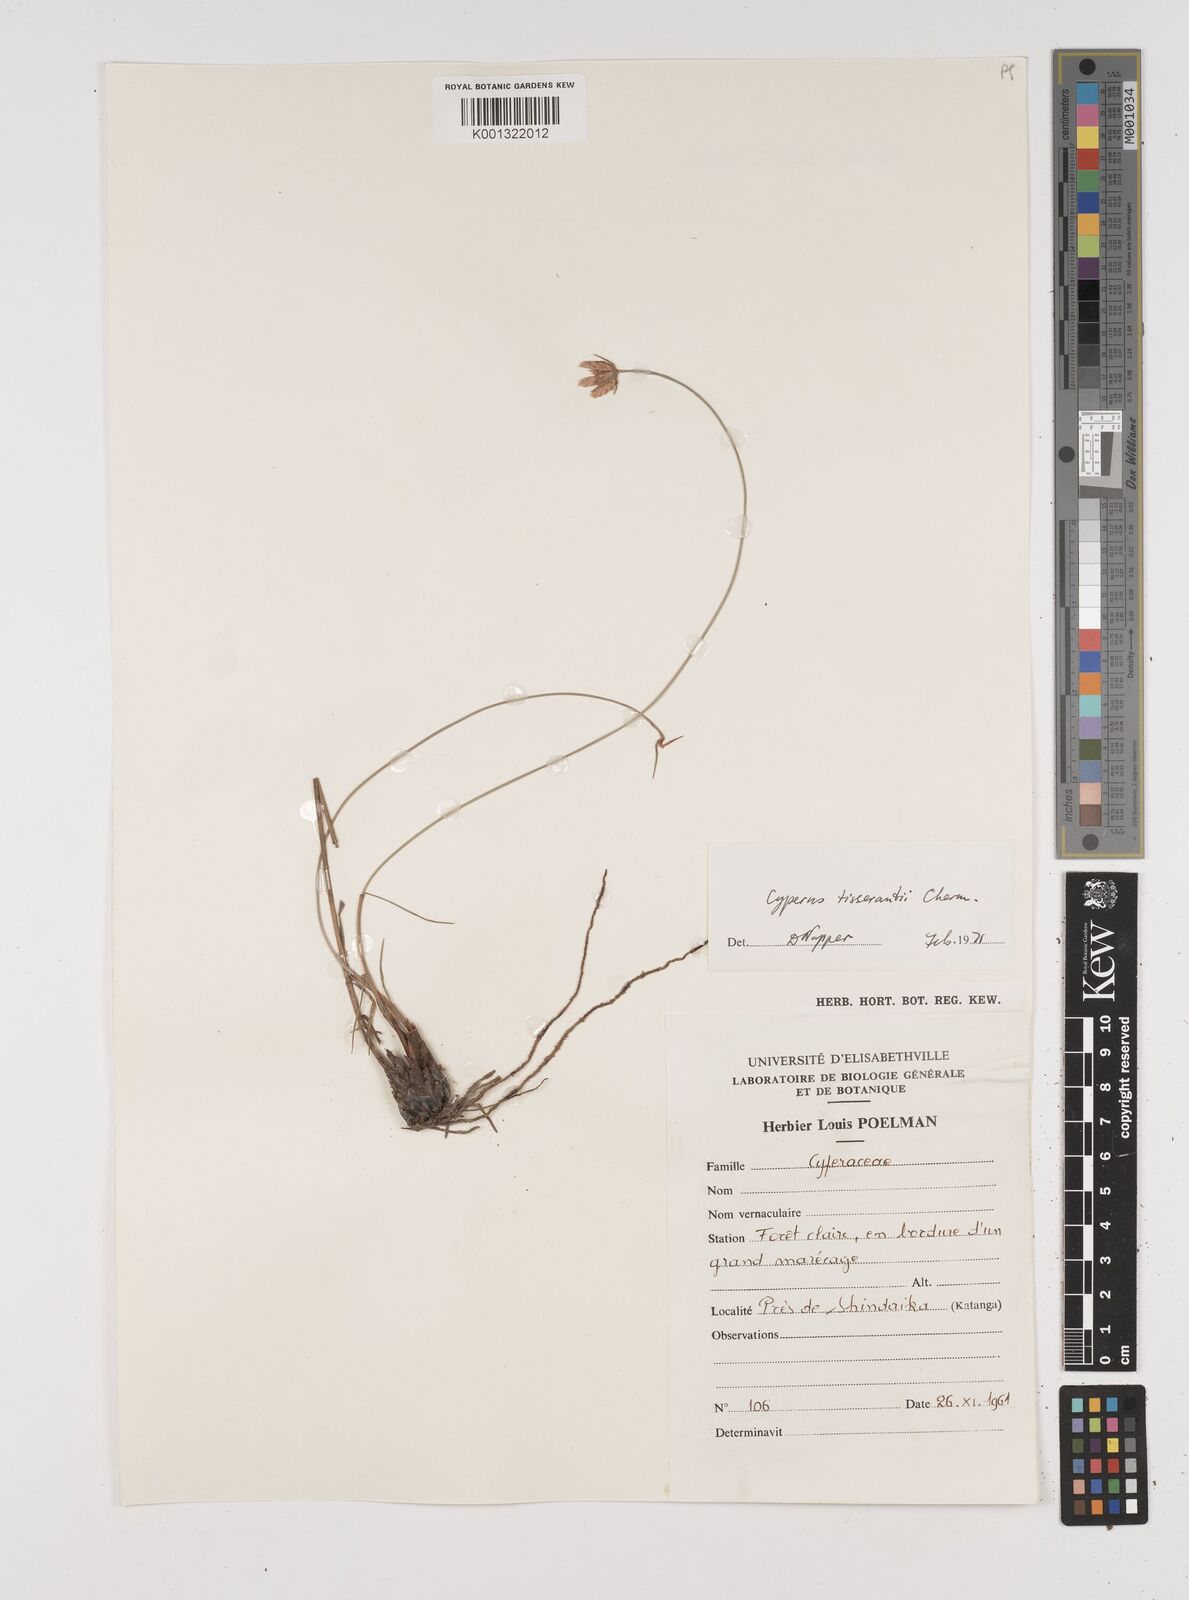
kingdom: Plantae
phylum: Tracheophyta
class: Liliopsida
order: Poales
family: Cyperaceae
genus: Cyperus
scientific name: Cyperus niveus
